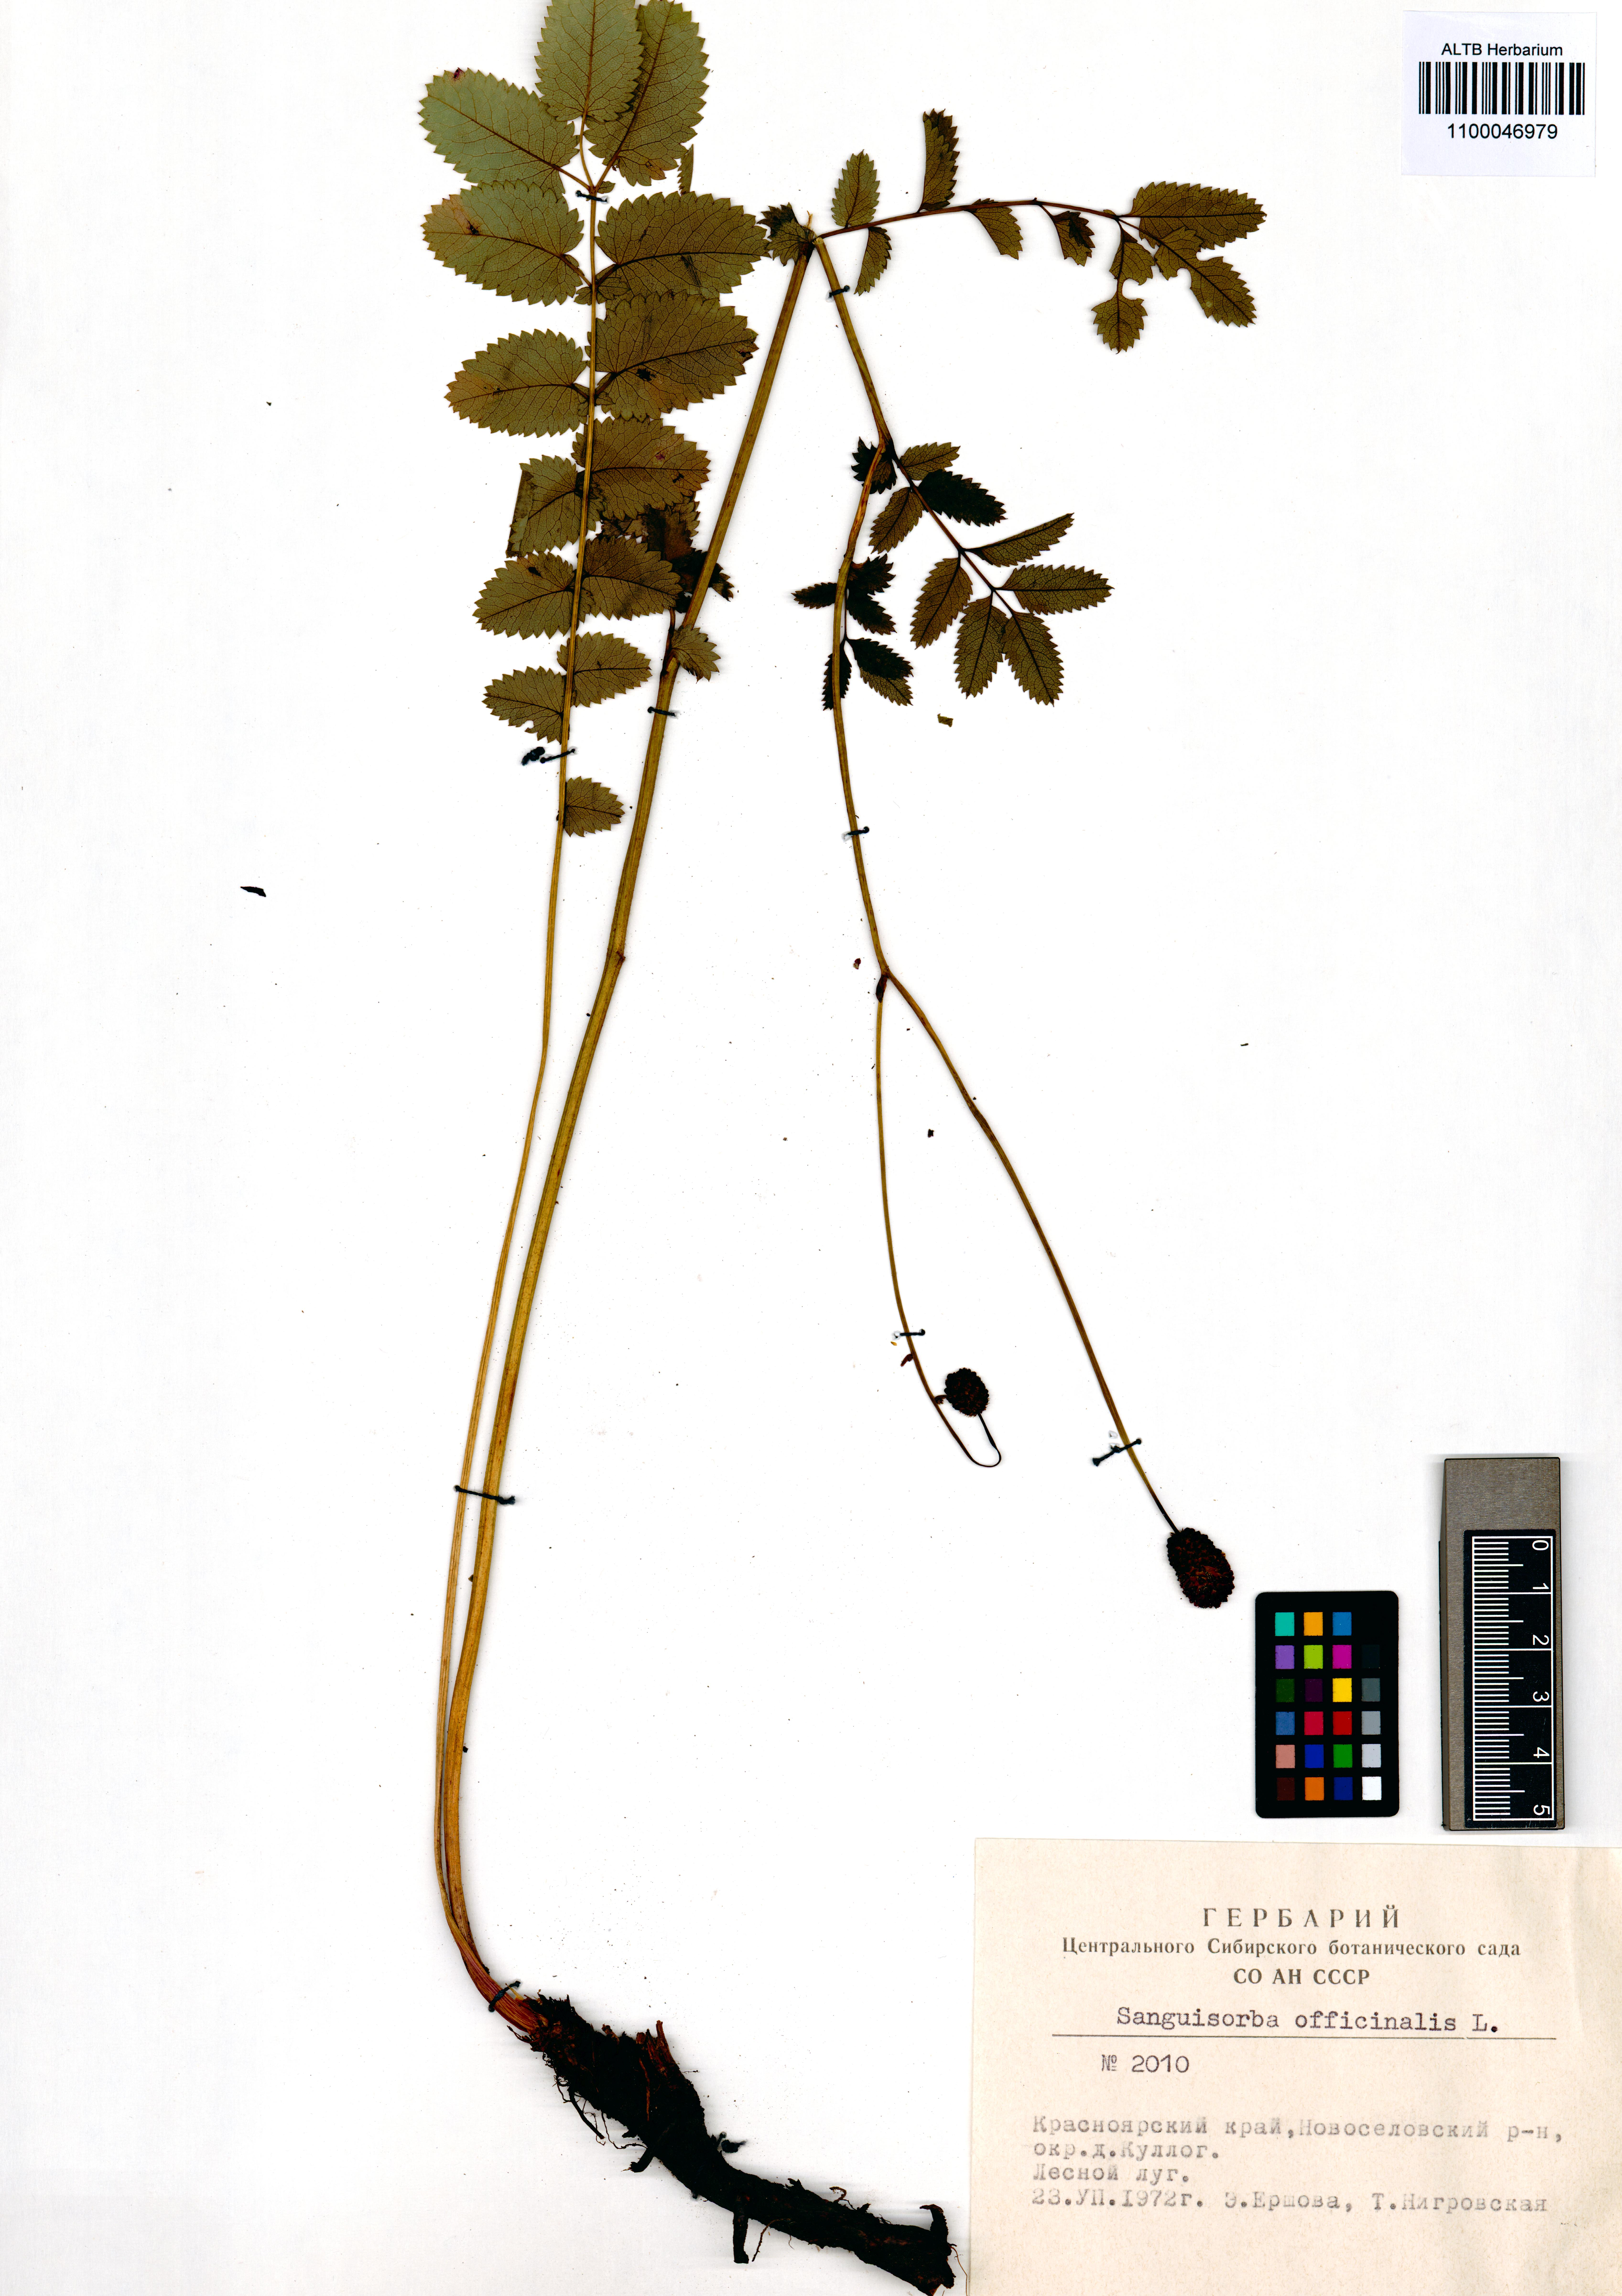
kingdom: Plantae
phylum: Tracheophyta
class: Magnoliopsida
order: Rosales
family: Rosaceae
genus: Sanguisorba
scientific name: Sanguisorba officinalis
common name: Great burnet
